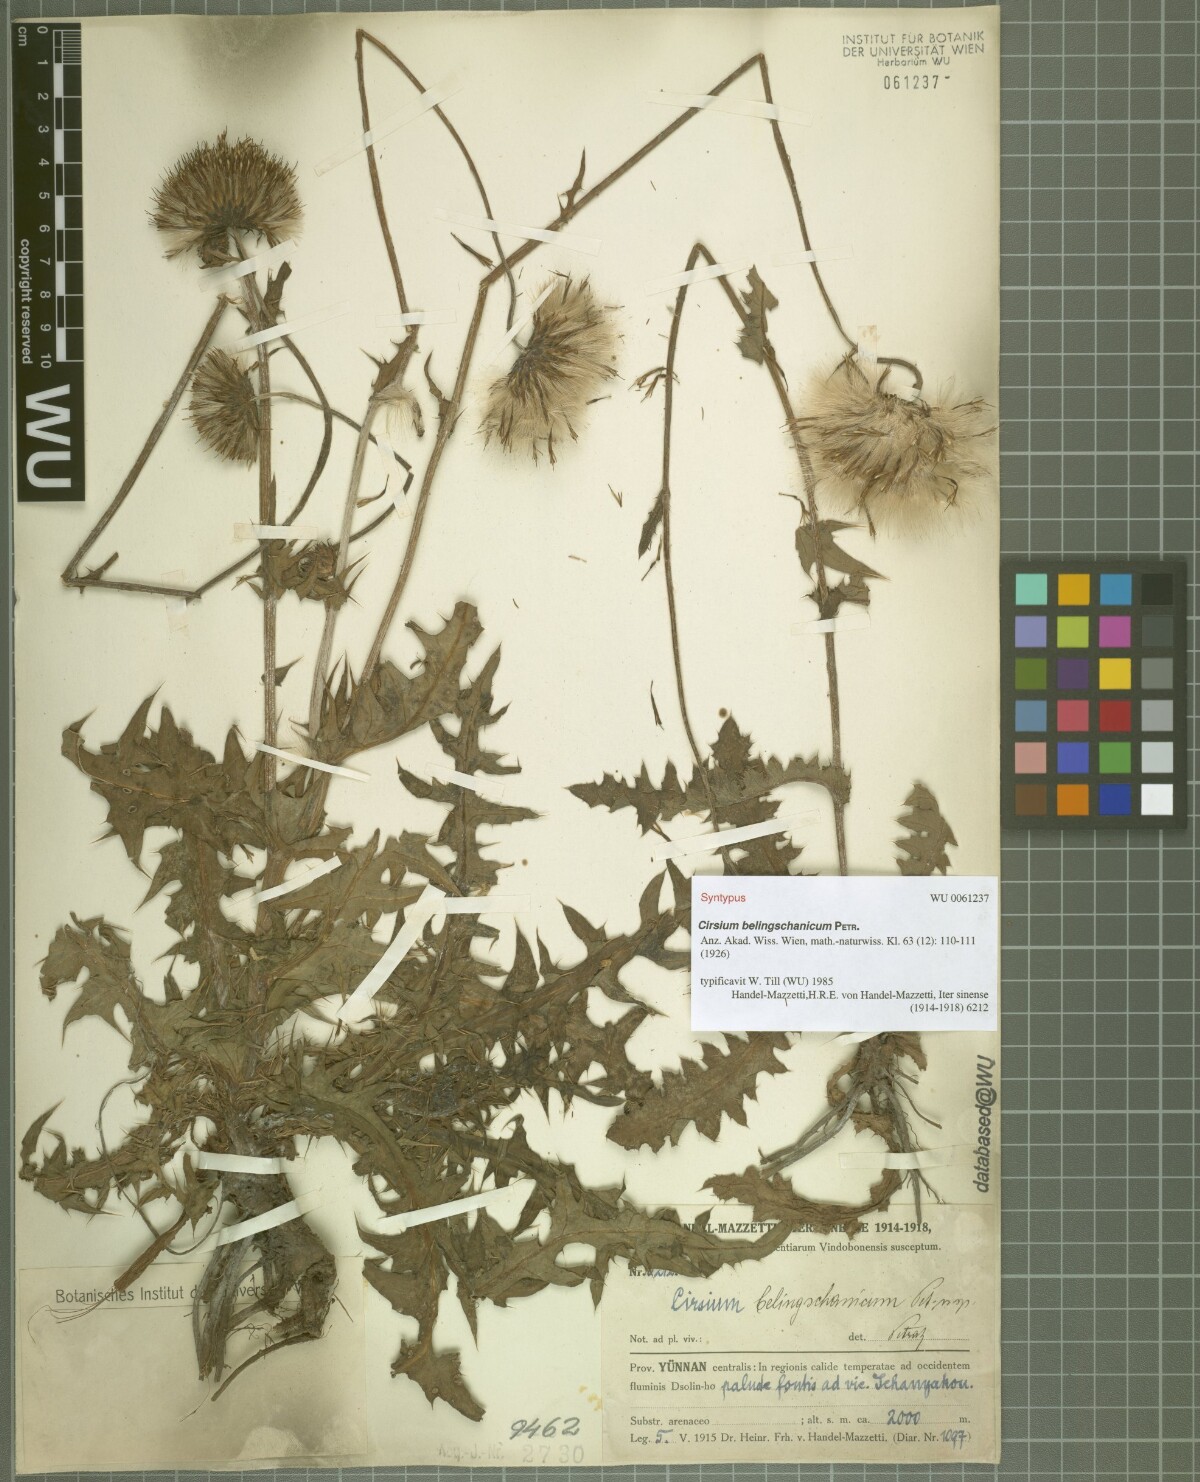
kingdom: Plantae
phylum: Tracheophyta
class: Magnoliopsida
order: Asterales
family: Asteraceae
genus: Cirsium
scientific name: Cirsium japonicum
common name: Japanese thistle
